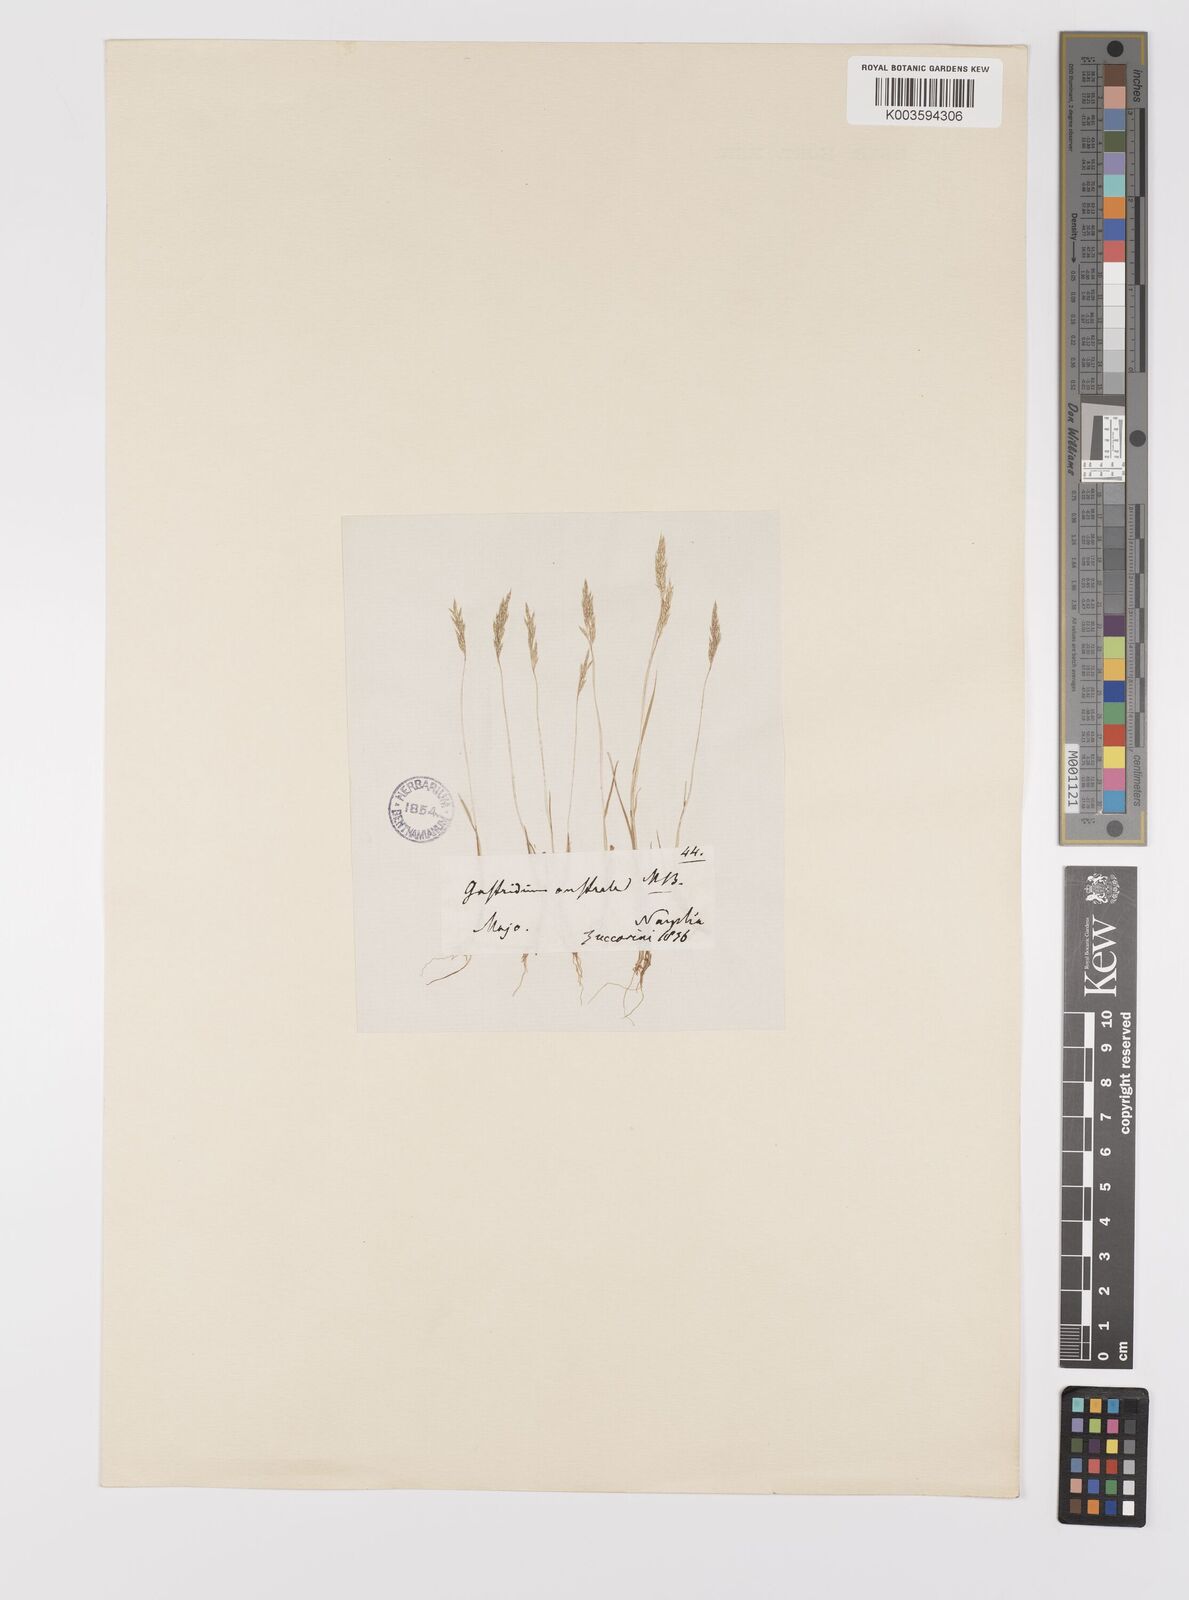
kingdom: Plantae
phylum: Tracheophyta
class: Liliopsida
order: Poales
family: Poaceae
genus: Gastridium
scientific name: Gastridium ventricosum
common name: Nit-grass
